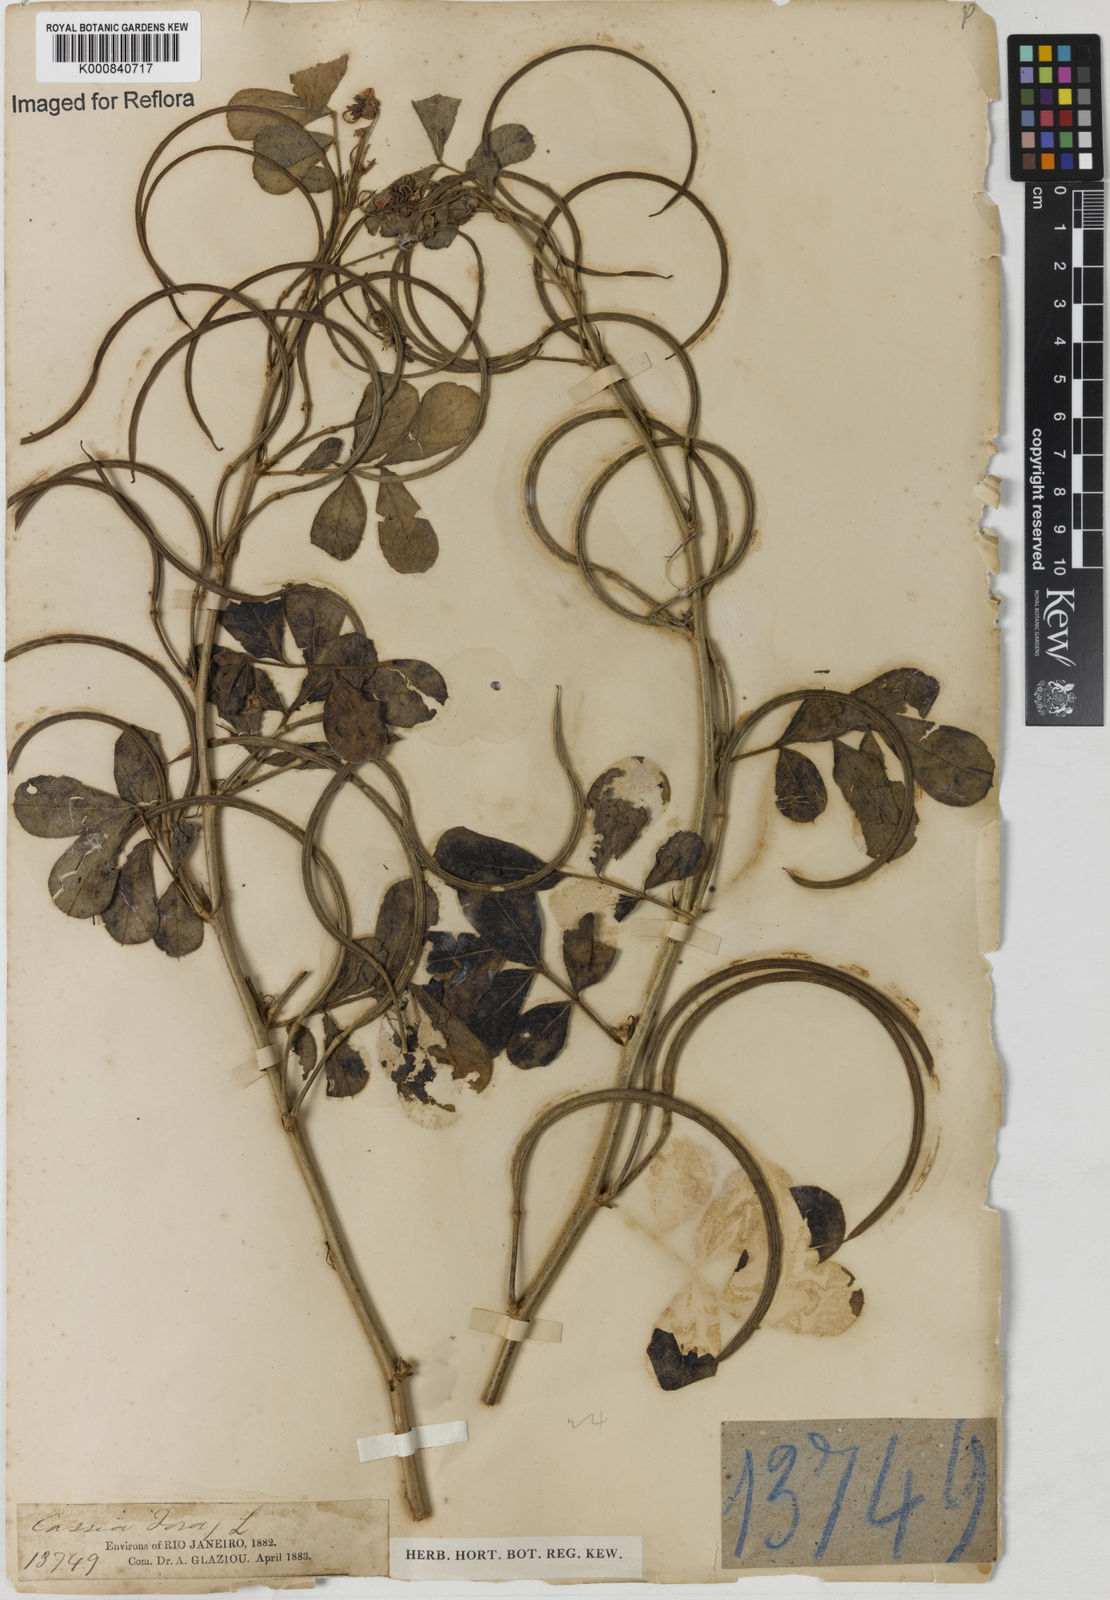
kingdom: Plantae
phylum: Tracheophyta
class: Magnoliopsida
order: Fabales
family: Fabaceae
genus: Senna
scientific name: Senna obtusifolia
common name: Java-bean
